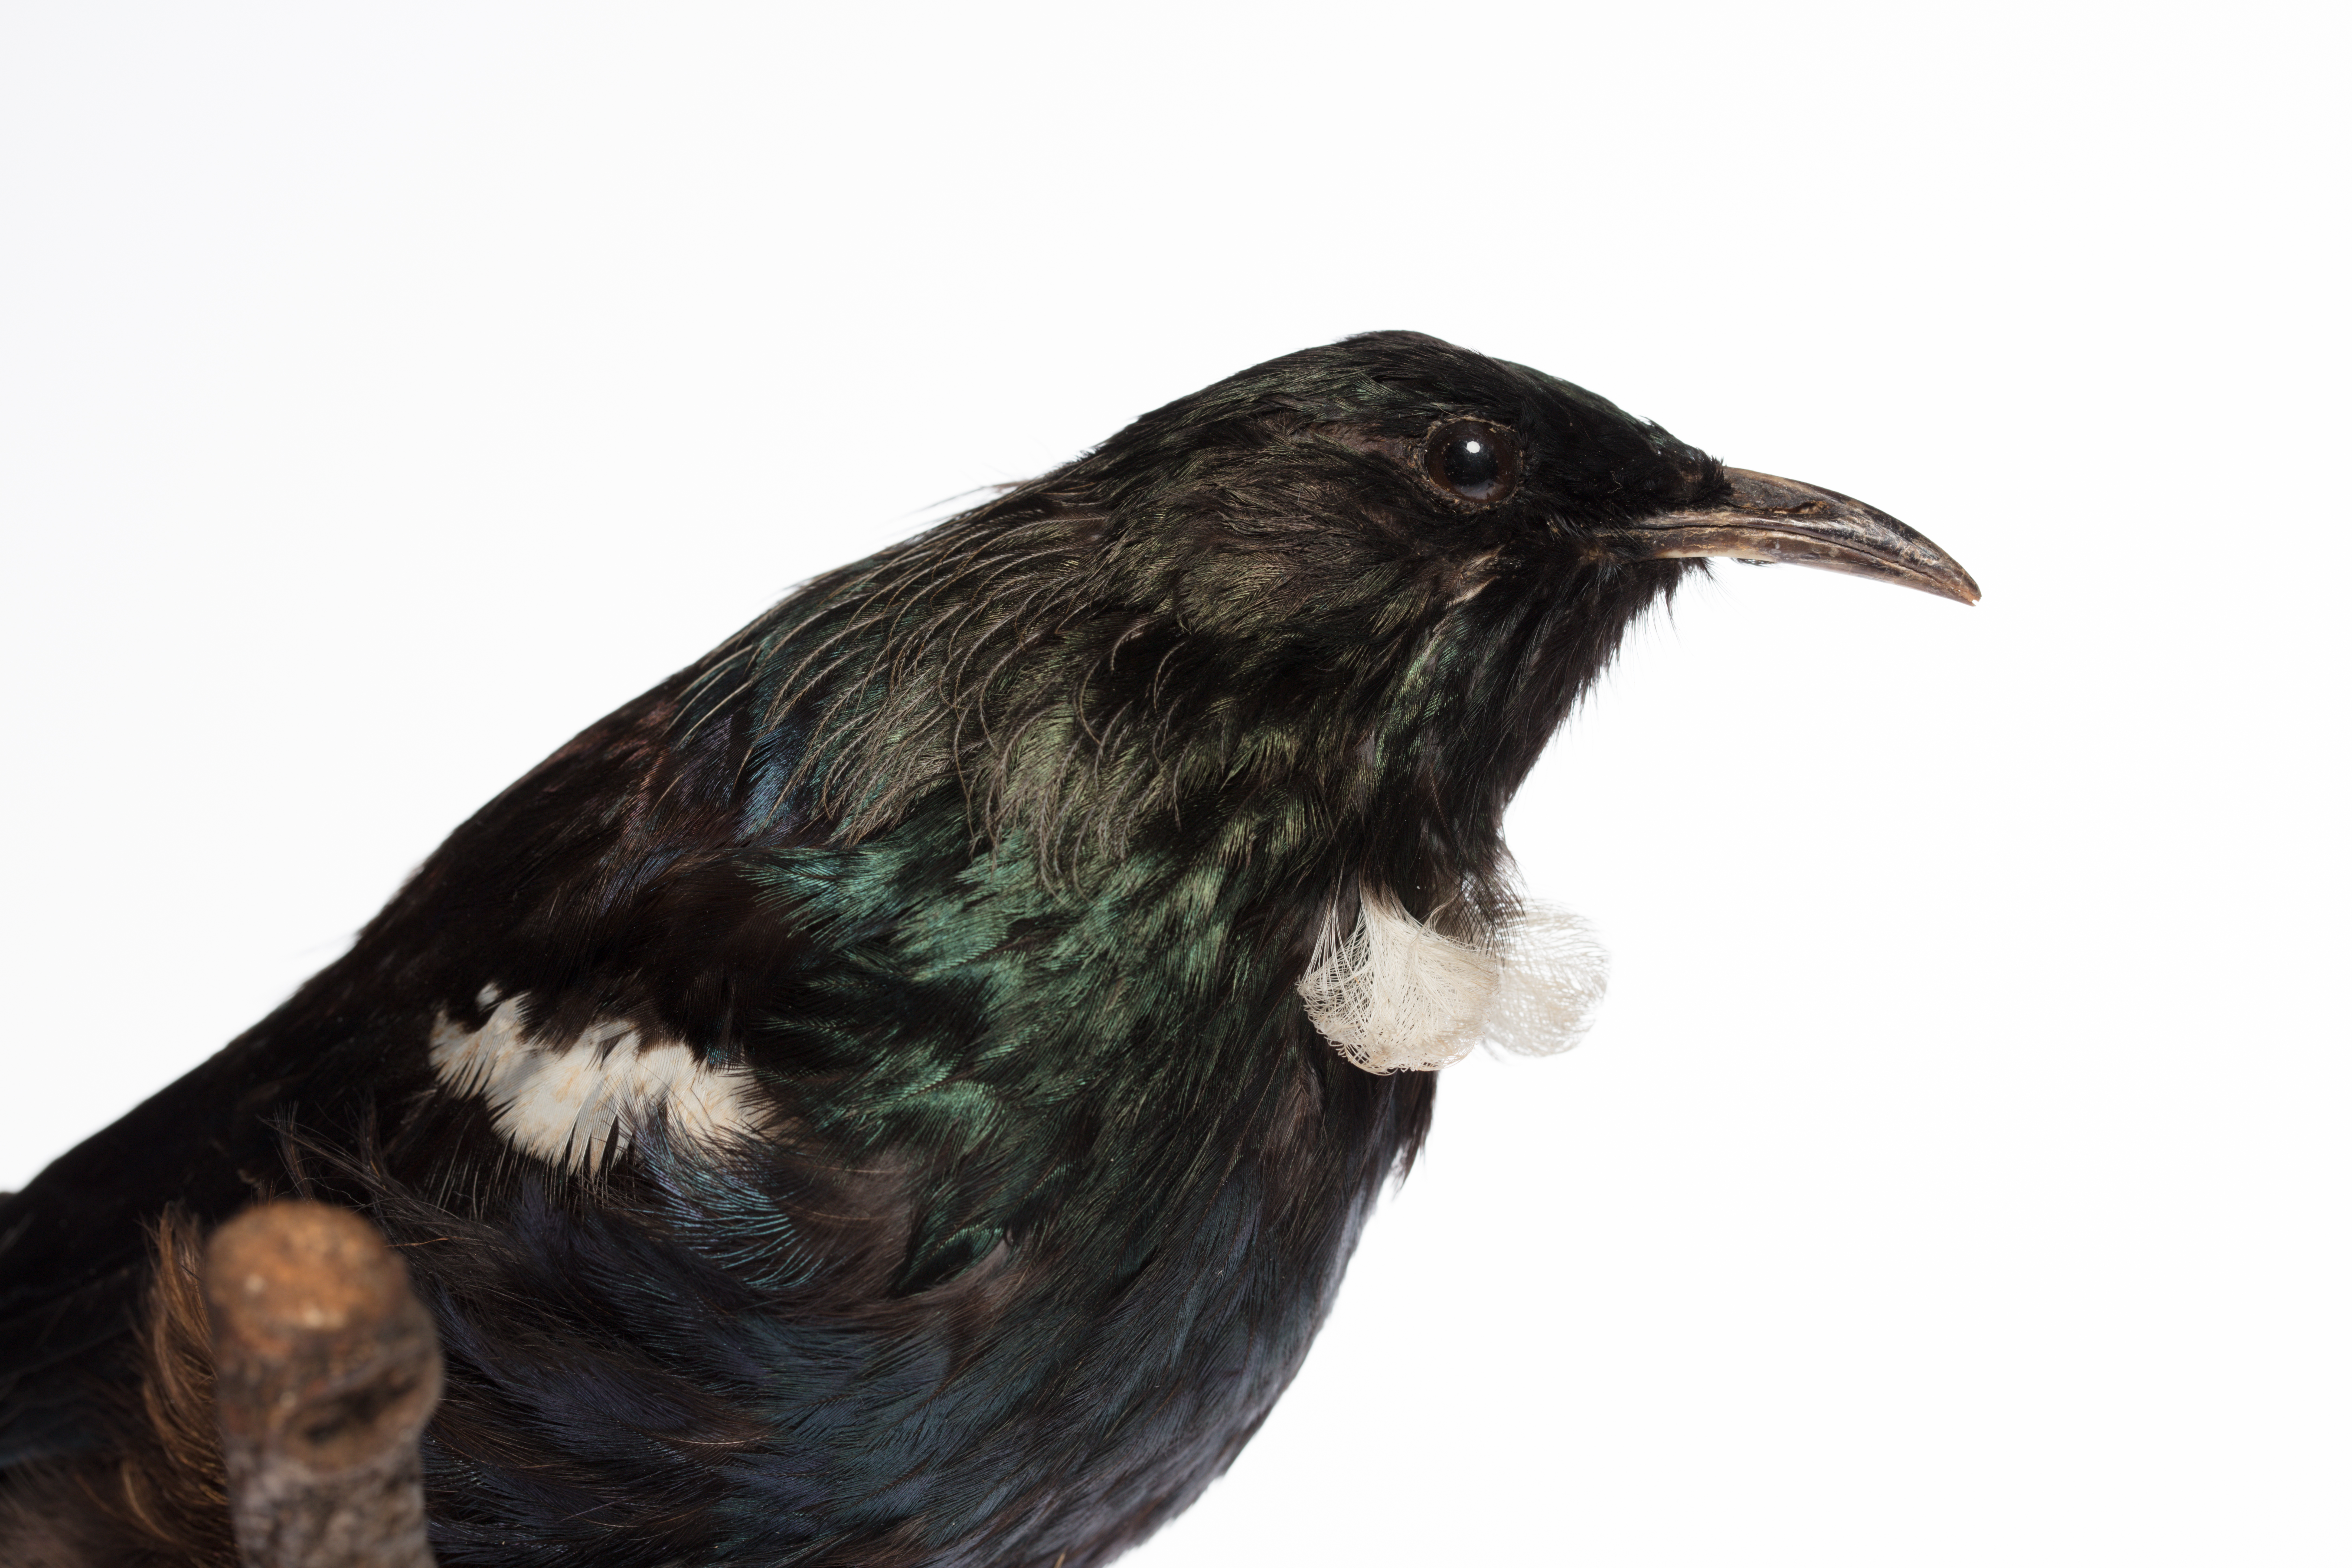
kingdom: Animalia
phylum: Chordata
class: Aves
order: Passeriformes
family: Meliphagidae
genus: Prosthemadera
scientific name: Prosthemadera novaeseelandiae
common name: Tui
